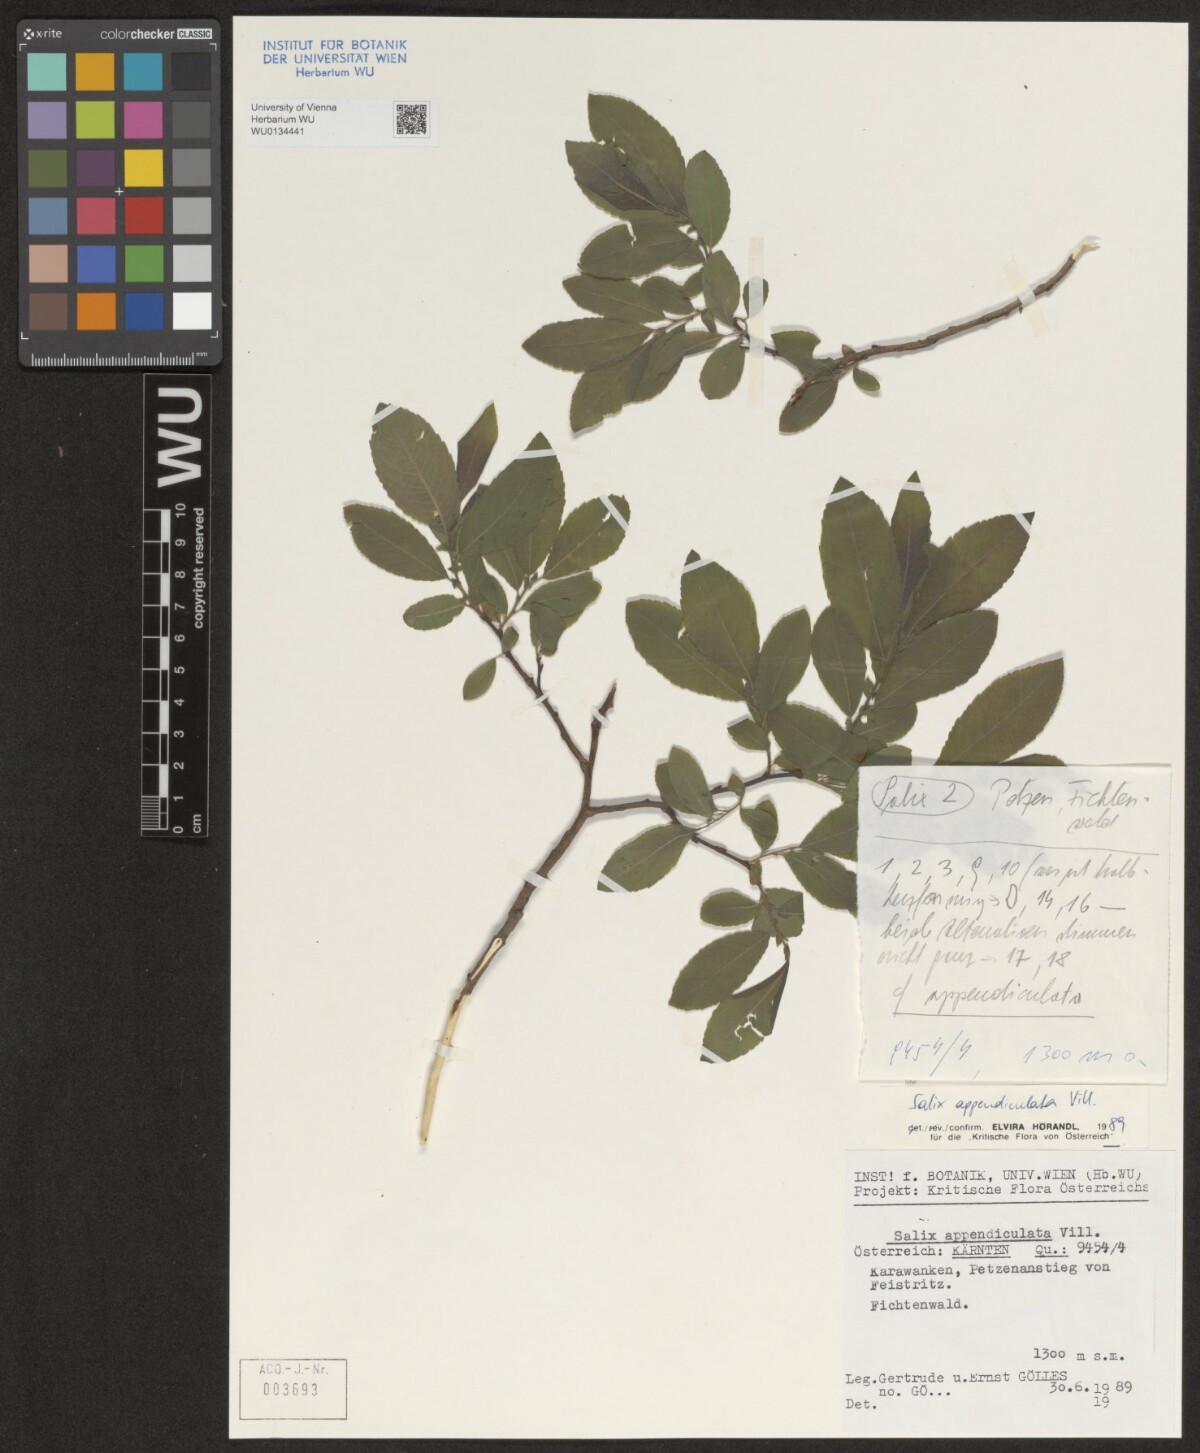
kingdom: Plantae
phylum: Tracheophyta
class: Magnoliopsida
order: Malpighiales
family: Salicaceae
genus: Salix
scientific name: Salix appendiculata
